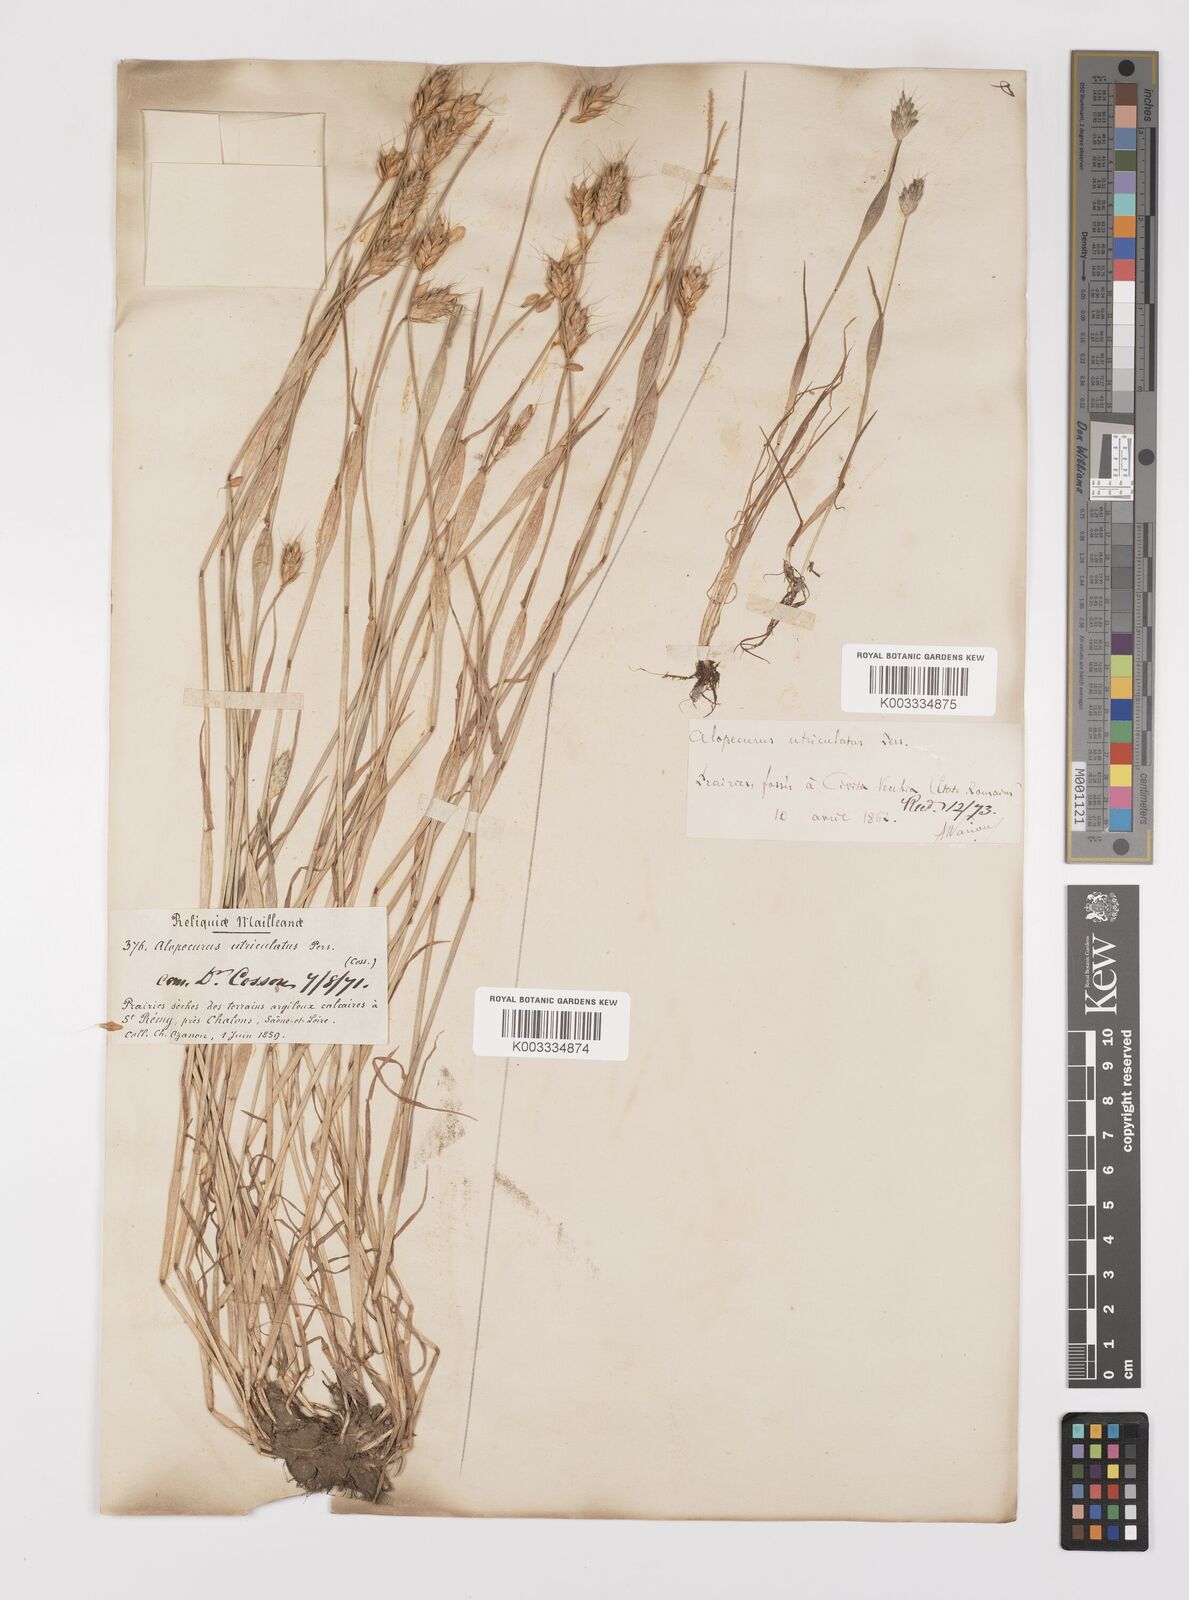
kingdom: Plantae
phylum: Tracheophyta
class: Liliopsida
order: Poales
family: Poaceae
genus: Alopecurus
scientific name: Alopecurus rendlei
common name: Rendle's meadow foxtail
